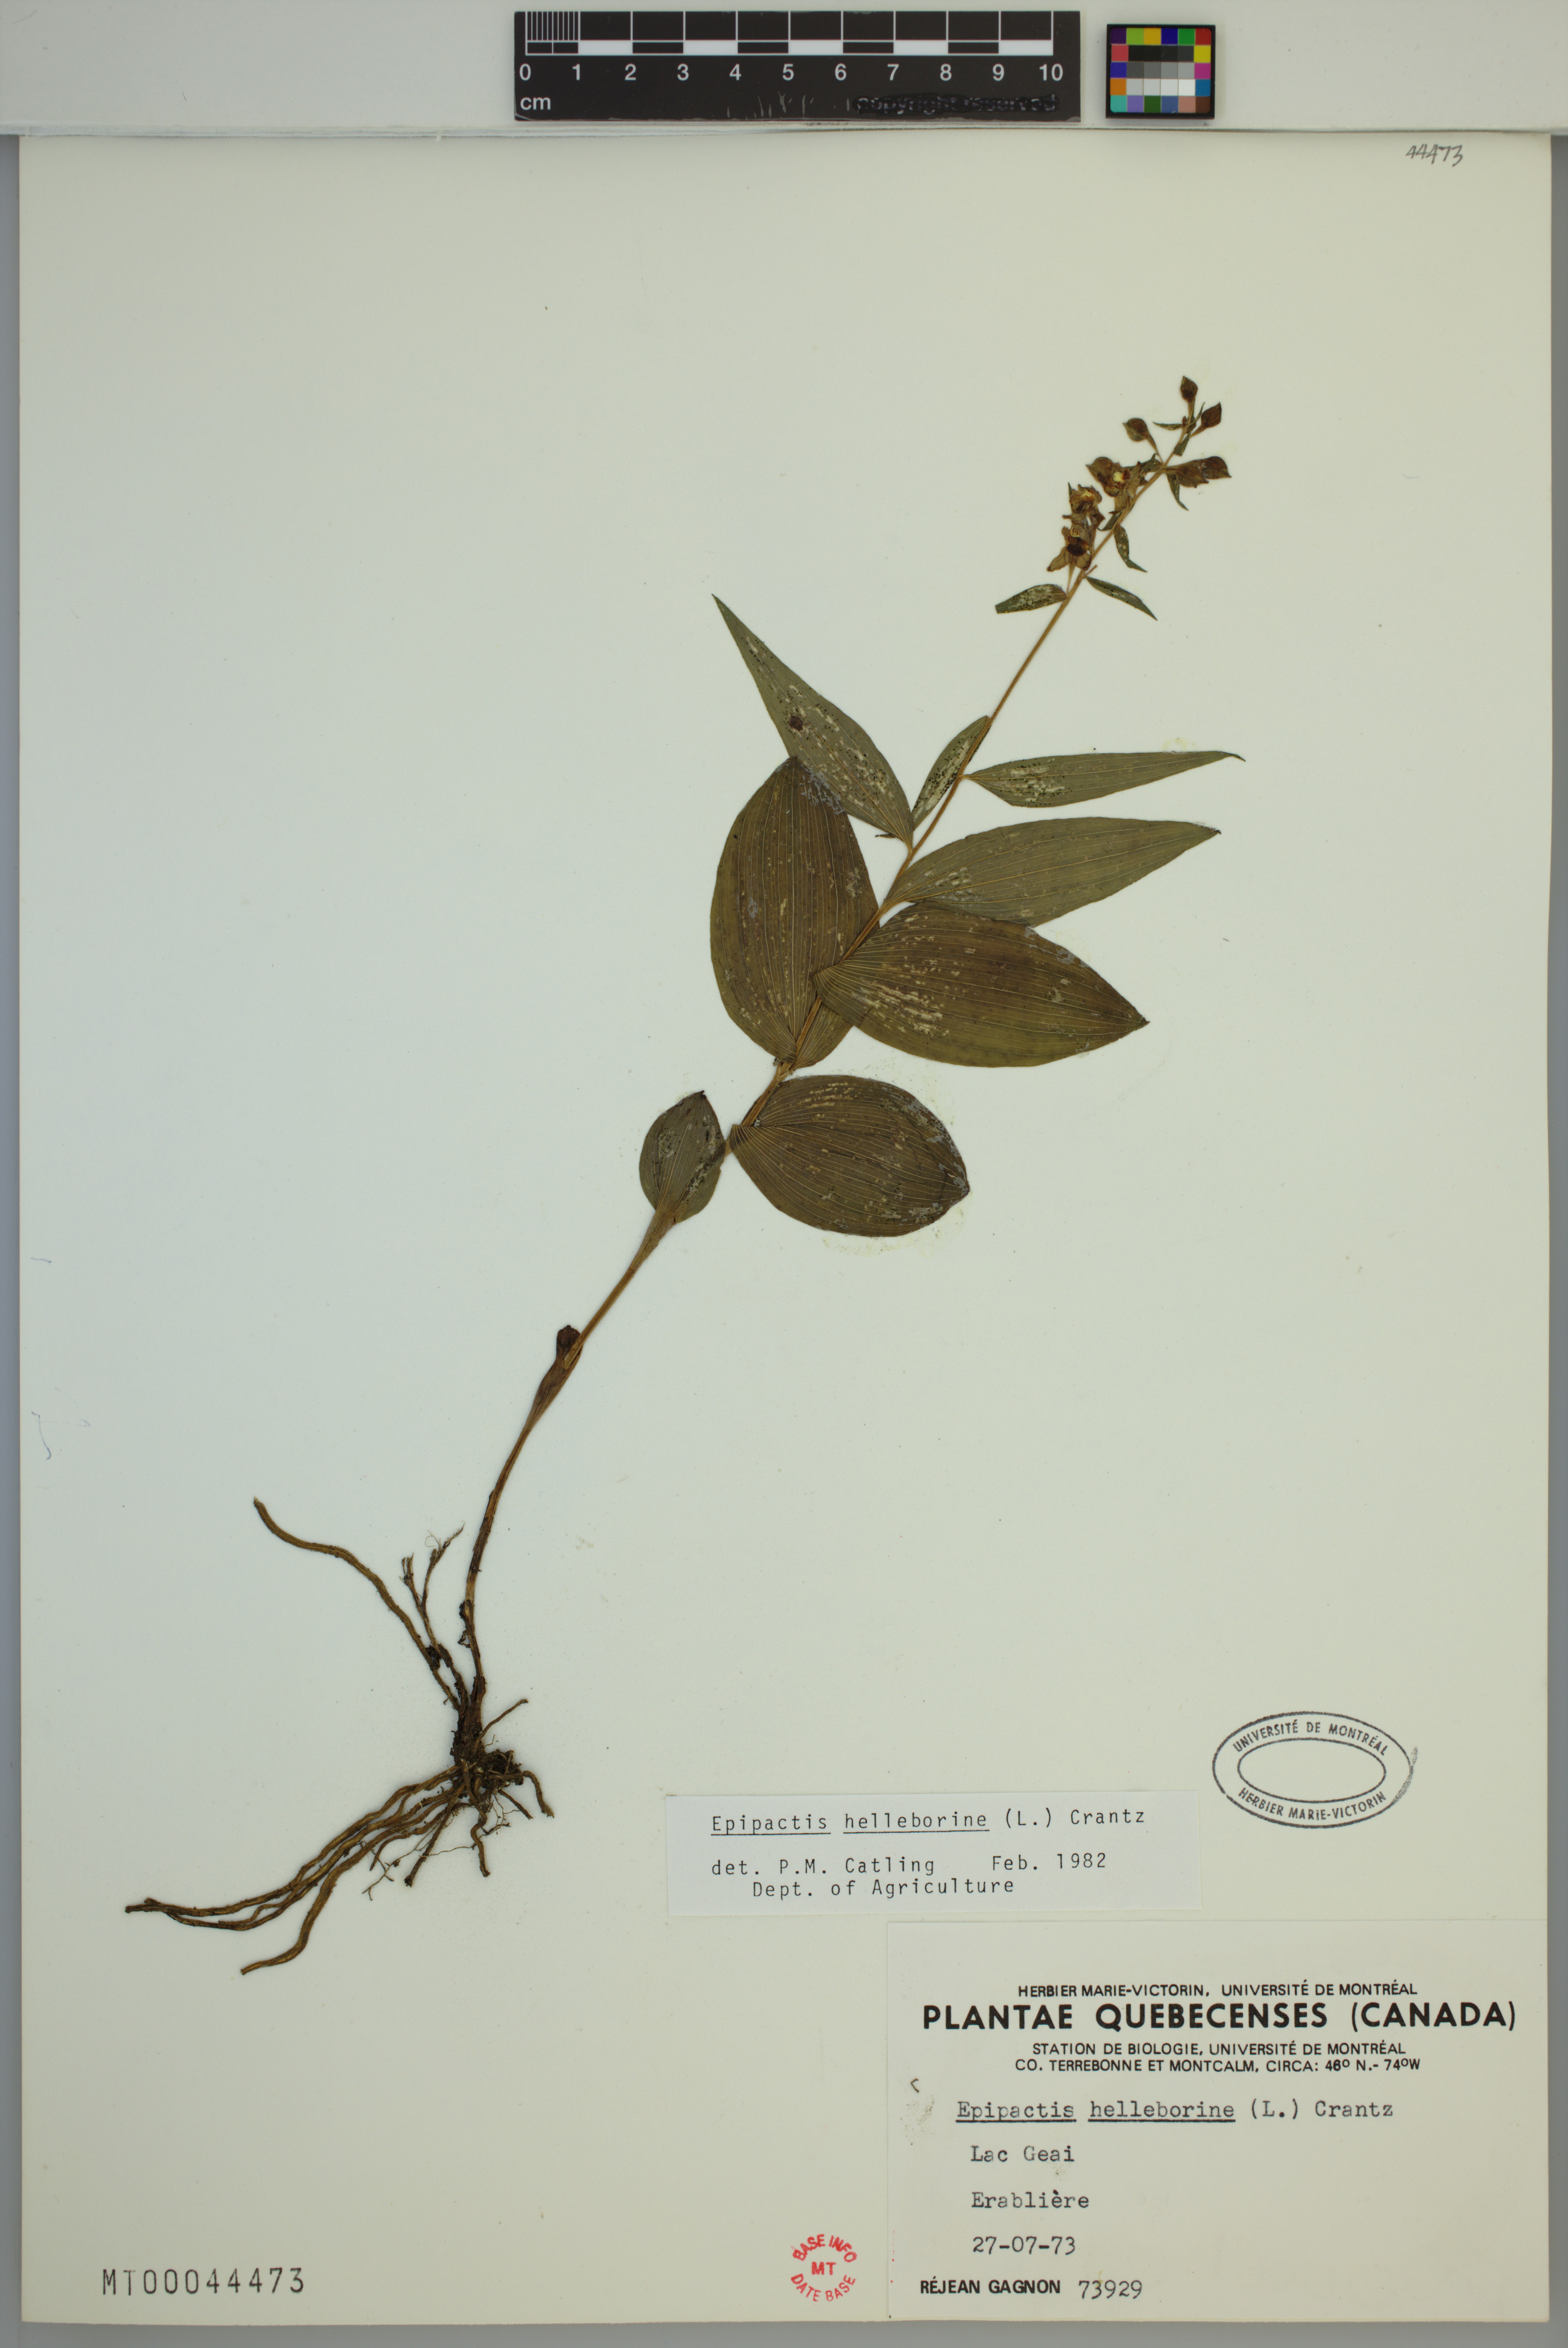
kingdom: Plantae
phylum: Tracheophyta
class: Liliopsida
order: Asparagales
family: Orchidaceae
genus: Epipactis
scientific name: Epipactis helleborine
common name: Broad-leaved helleborine
